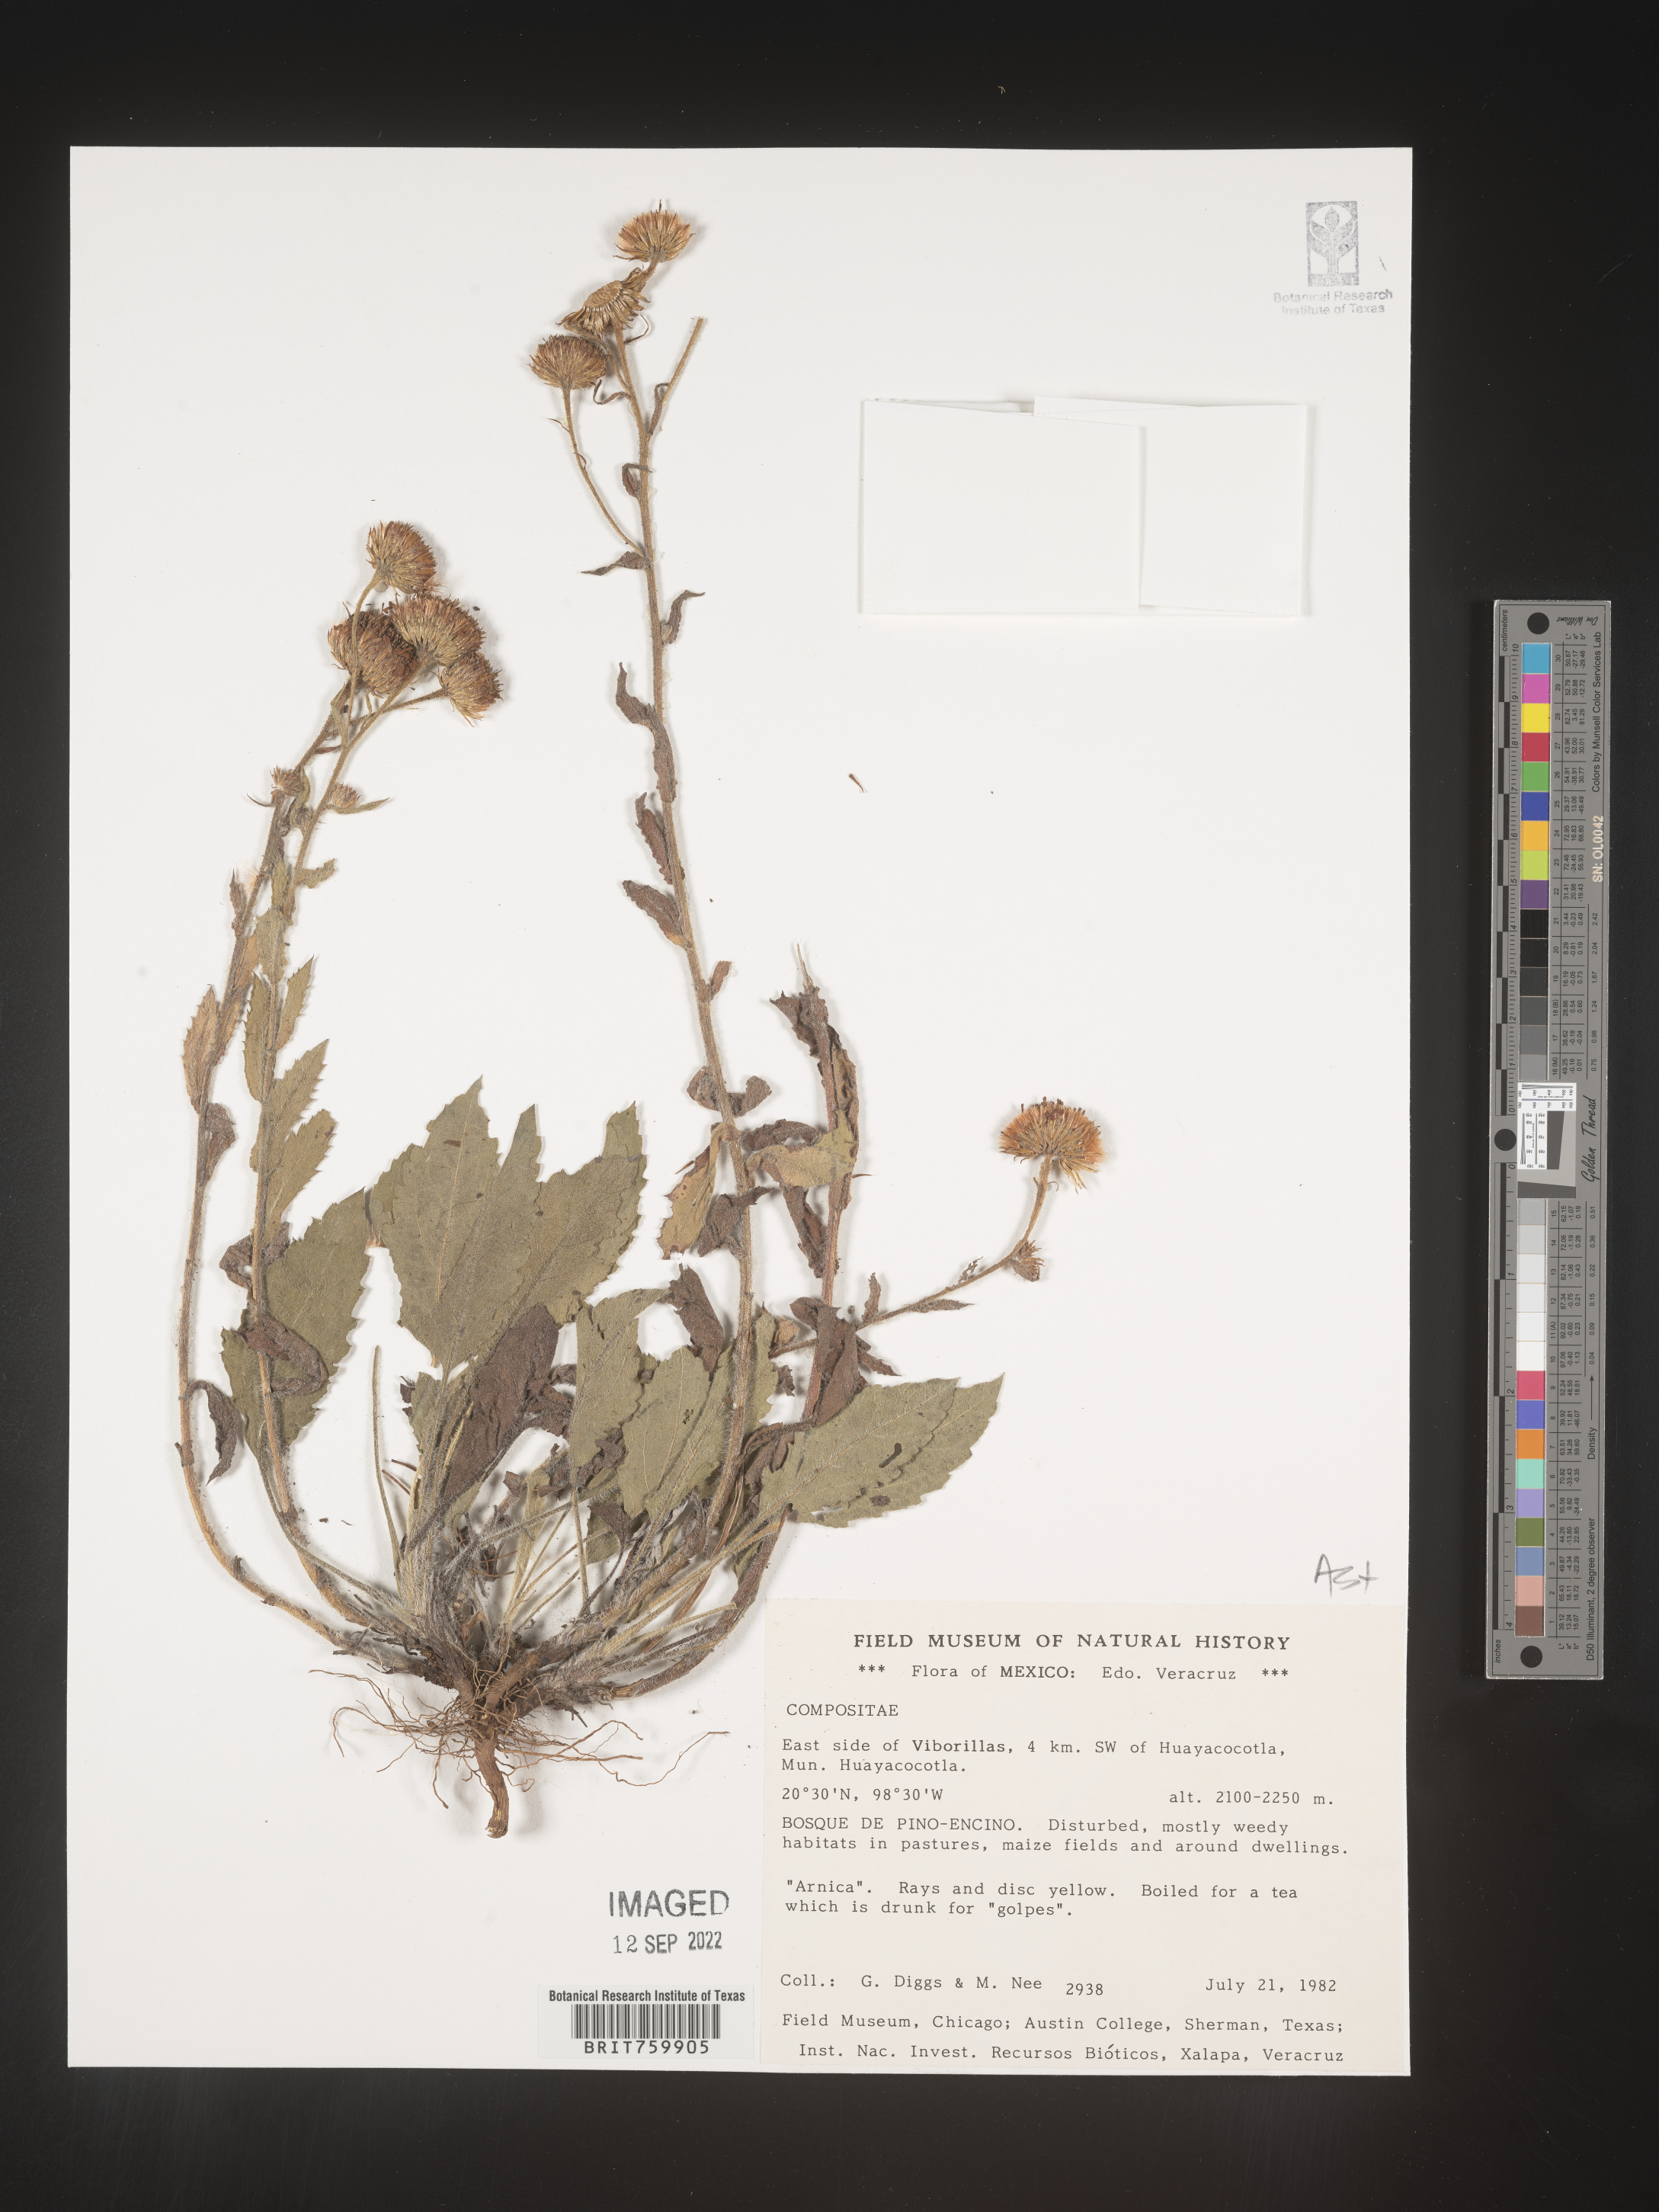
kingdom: Plantae
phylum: Tracheophyta
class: Magnoliopsida
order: Asterales
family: Asteraceae
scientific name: Asteraceae
